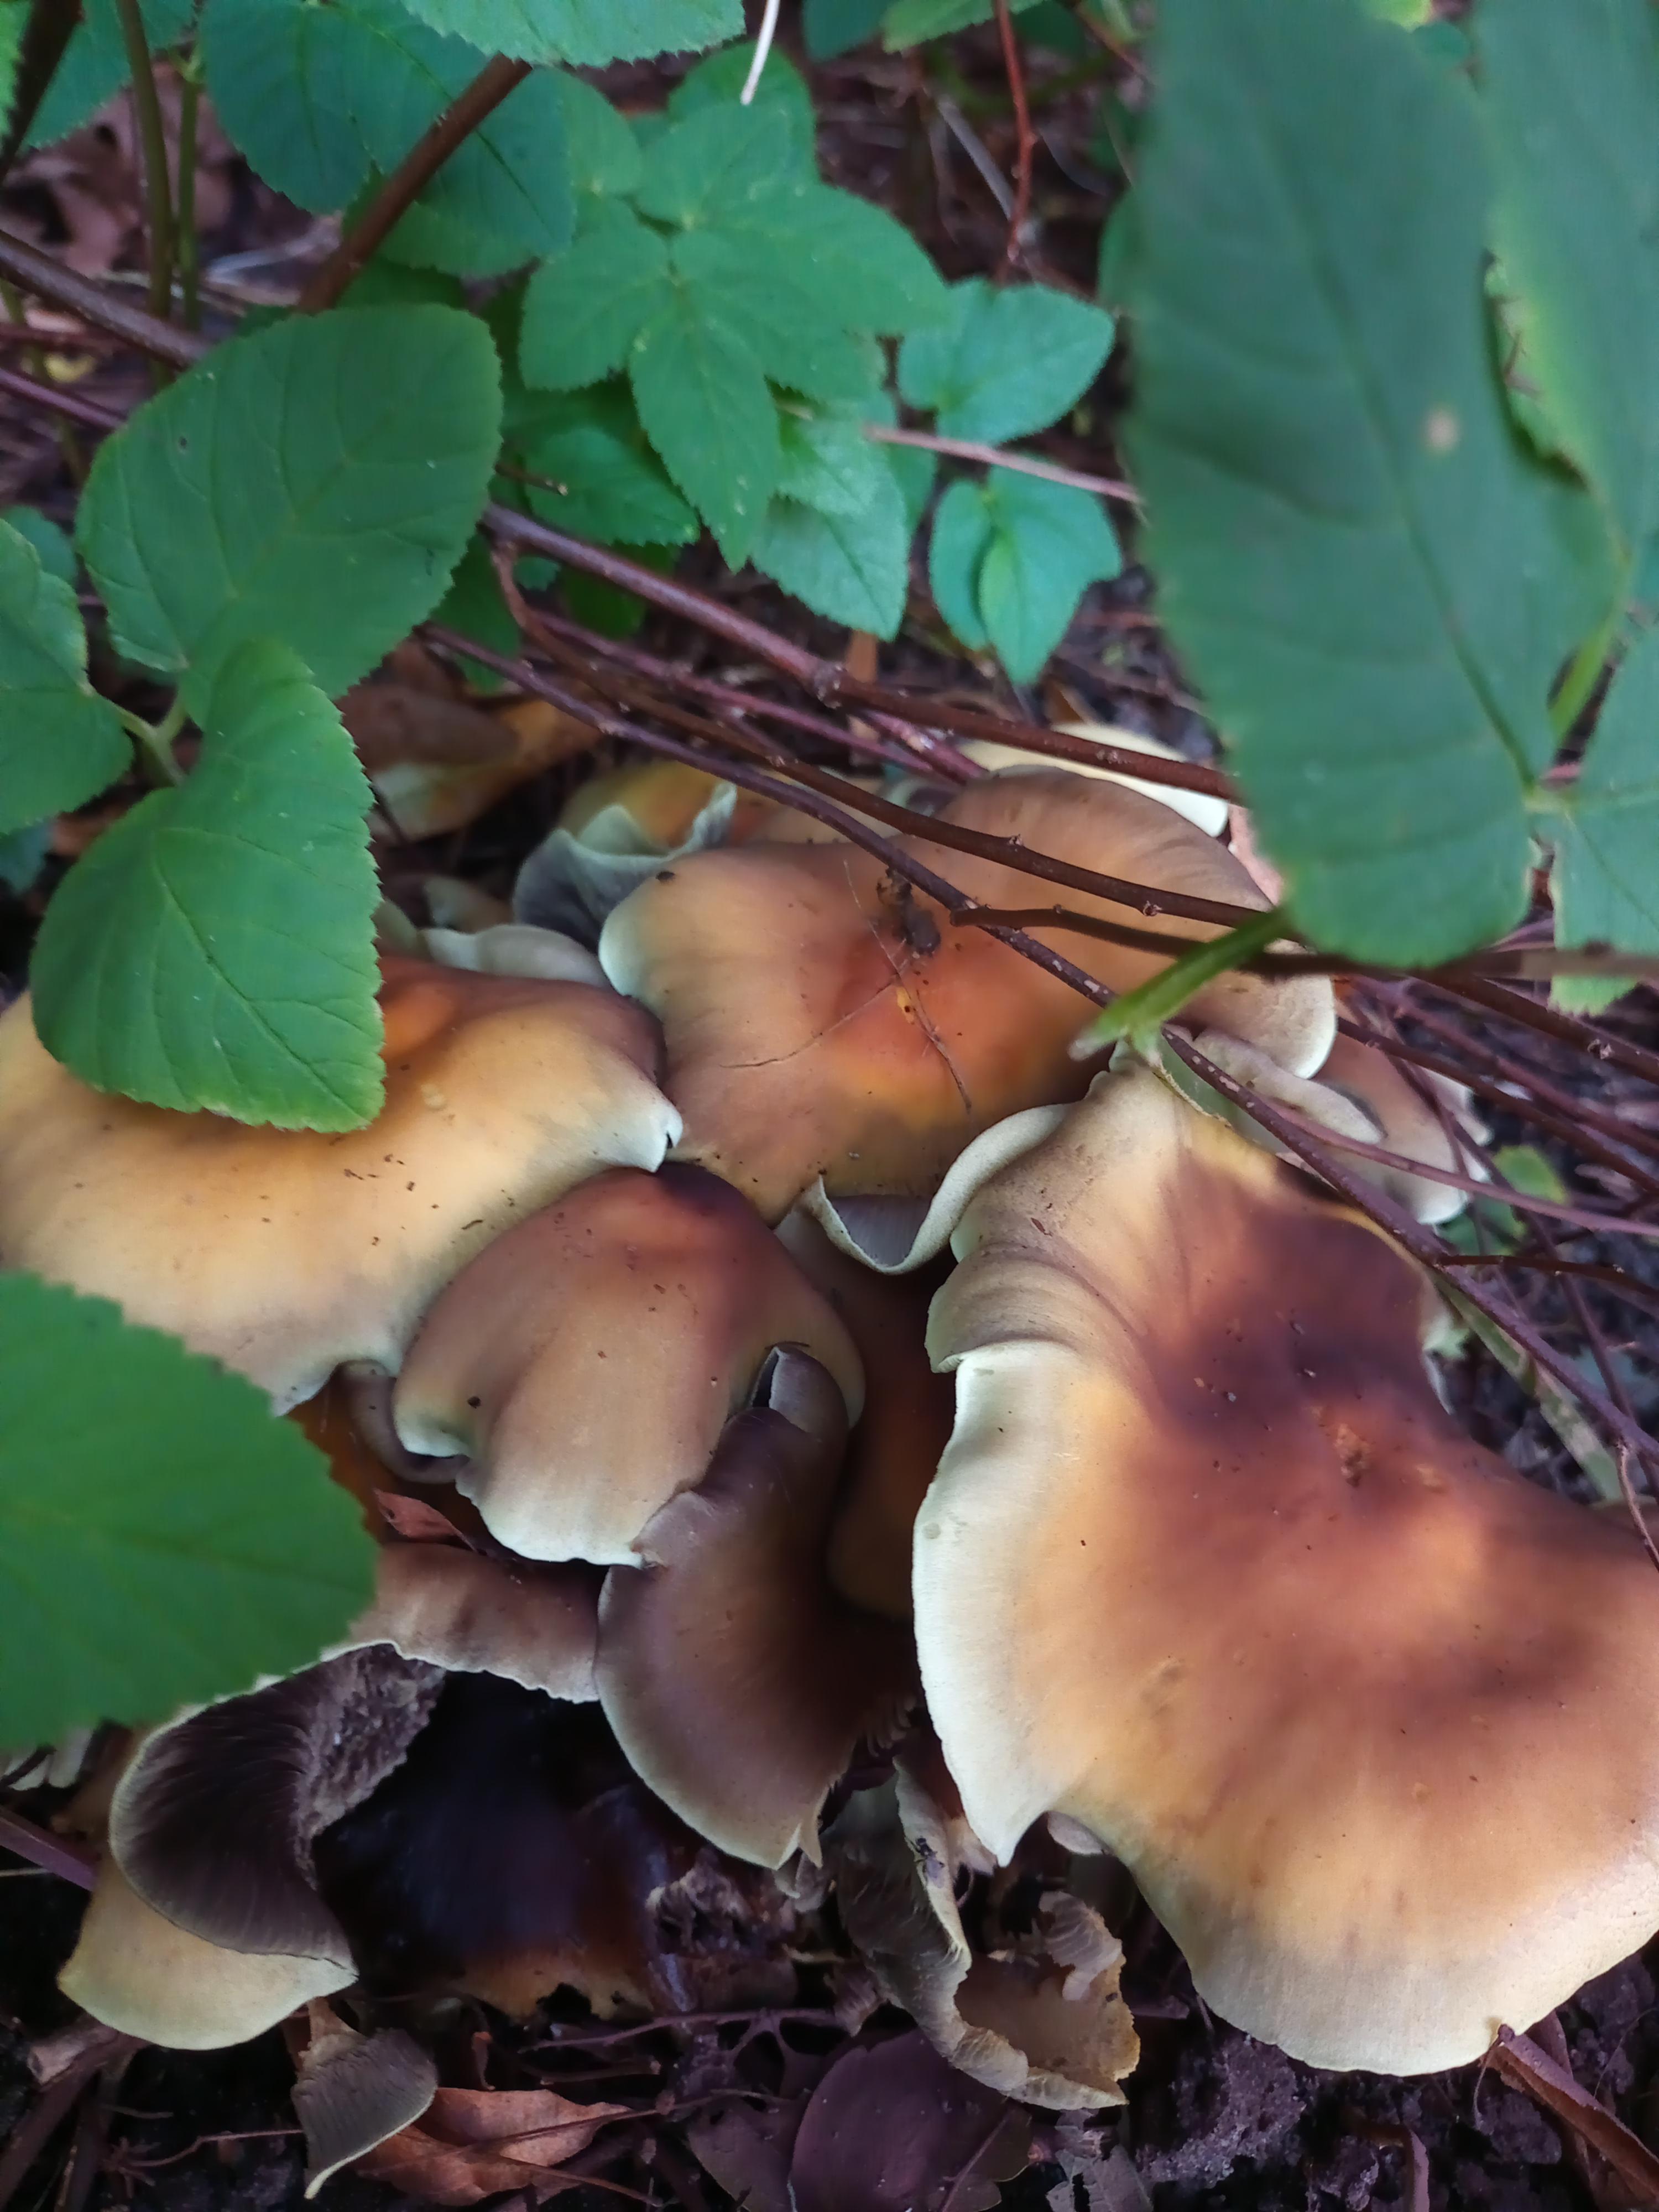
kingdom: Fungi
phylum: Basidiomycota
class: Agaricomycetes
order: Agaricales
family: Strophariaceae
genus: Hypholoma
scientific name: Hypholoma fasciculare
